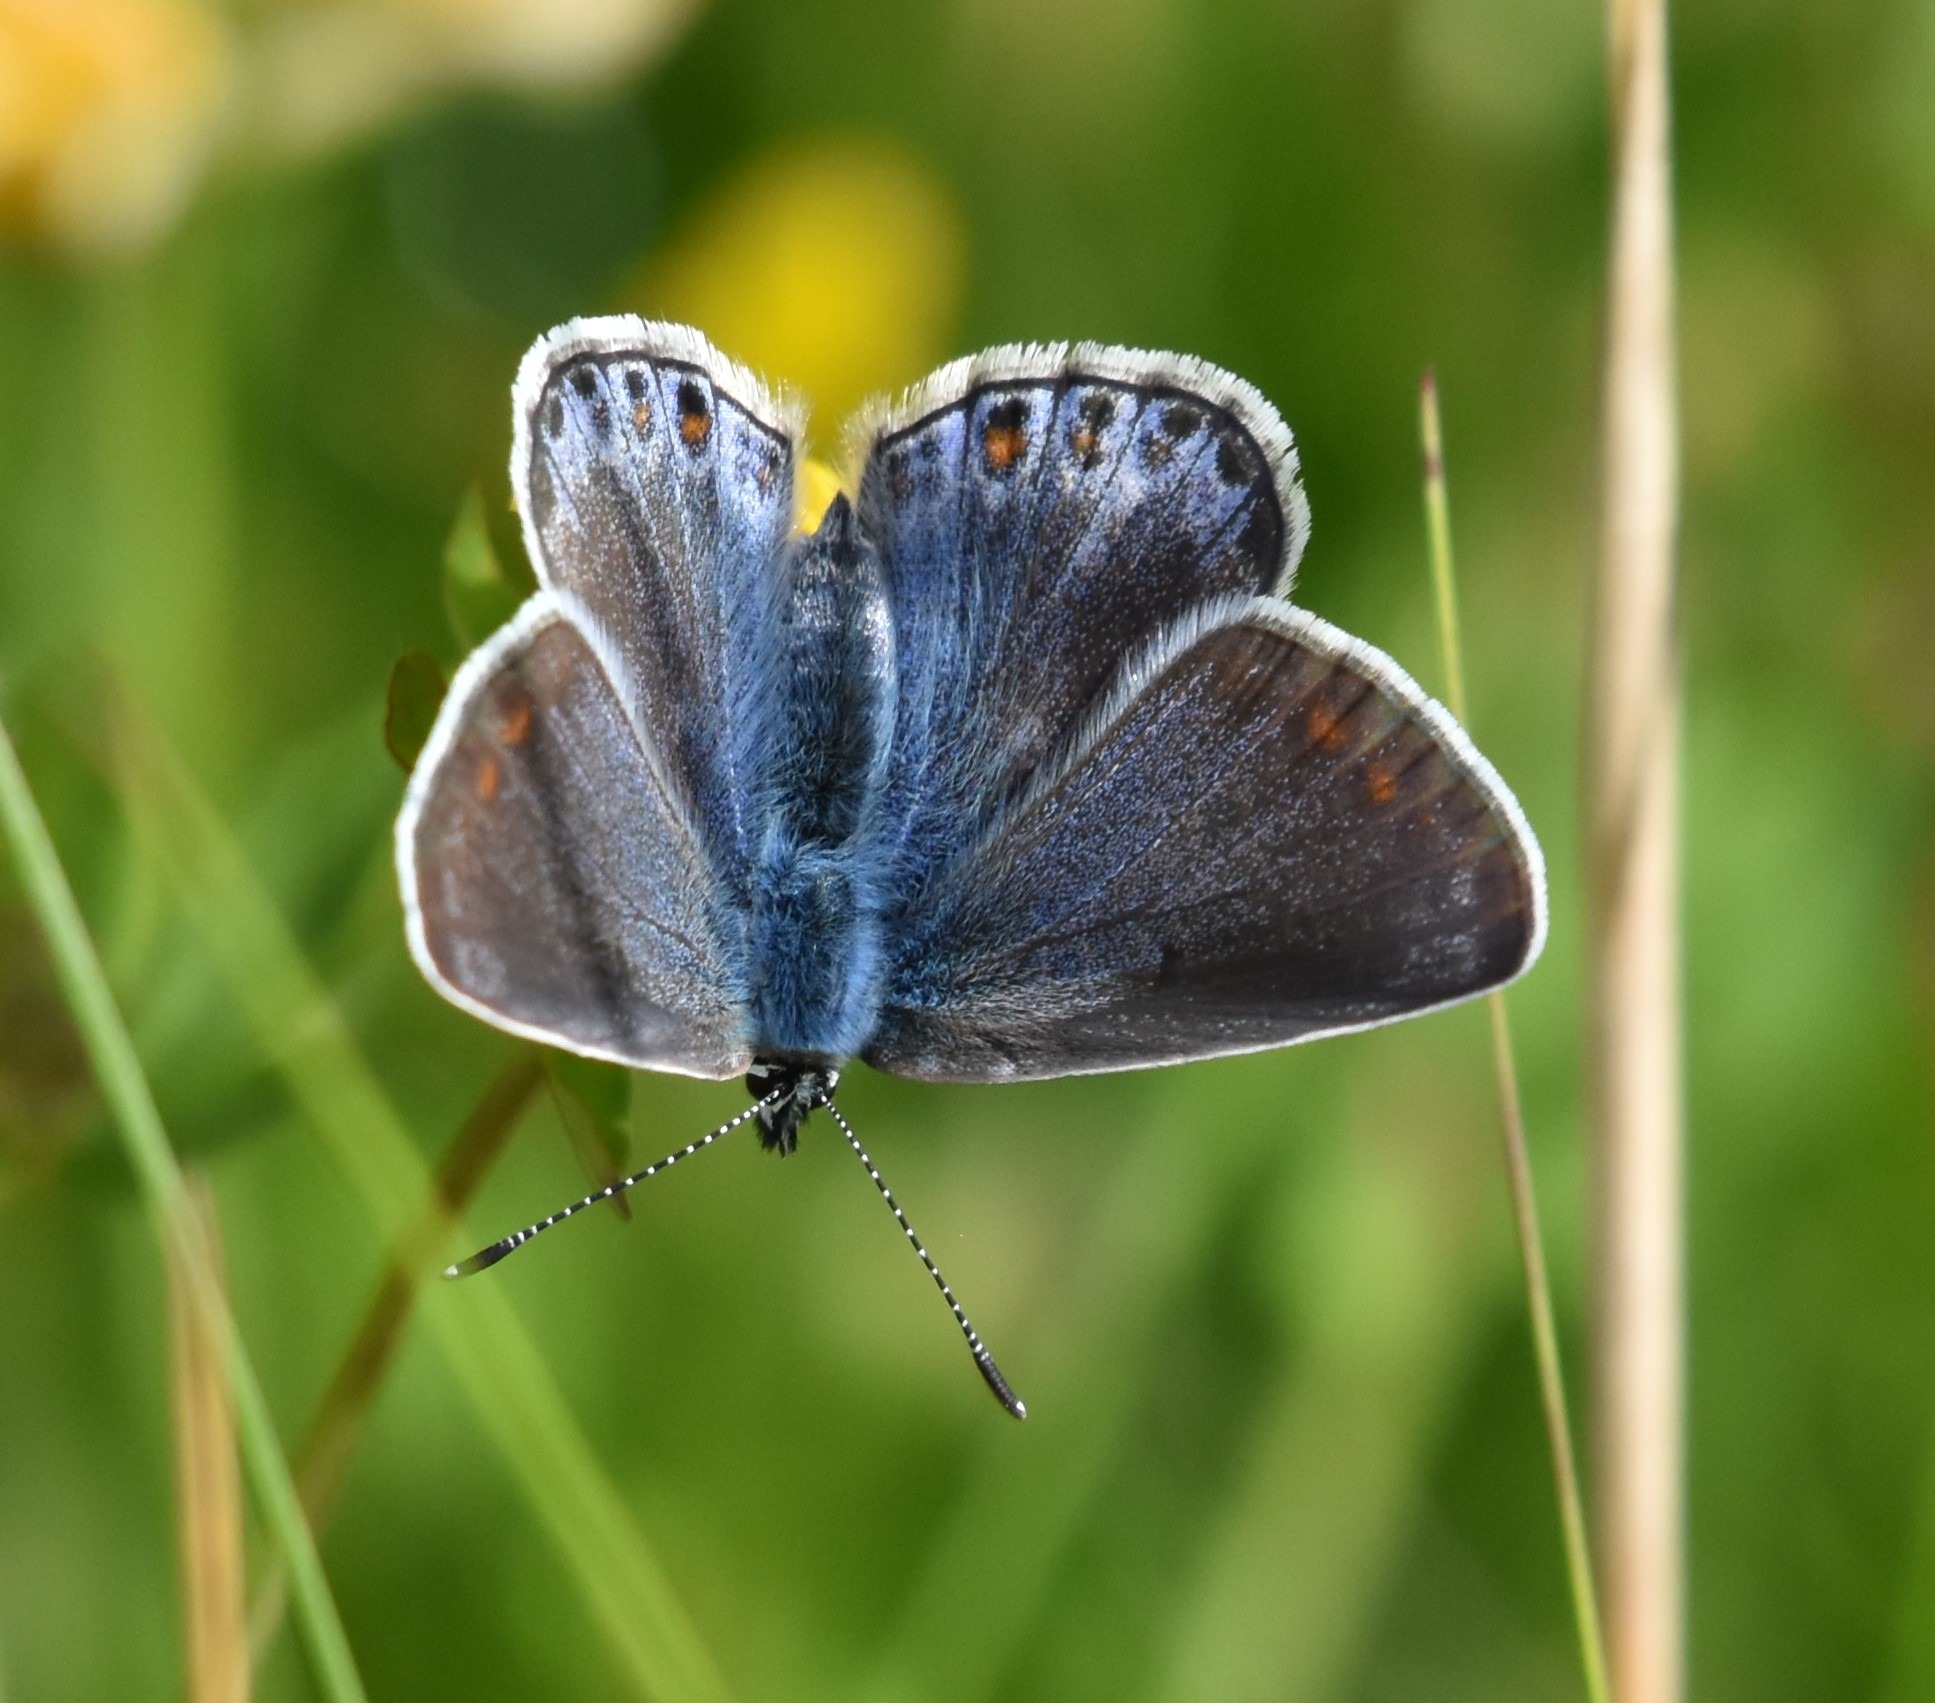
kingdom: Animalia
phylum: Arthropoda
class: Insecta
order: Lepidoptera
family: Lycaenidae
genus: Polyommatus
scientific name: Polyommatus icarus
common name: Almindelig blåfugl
